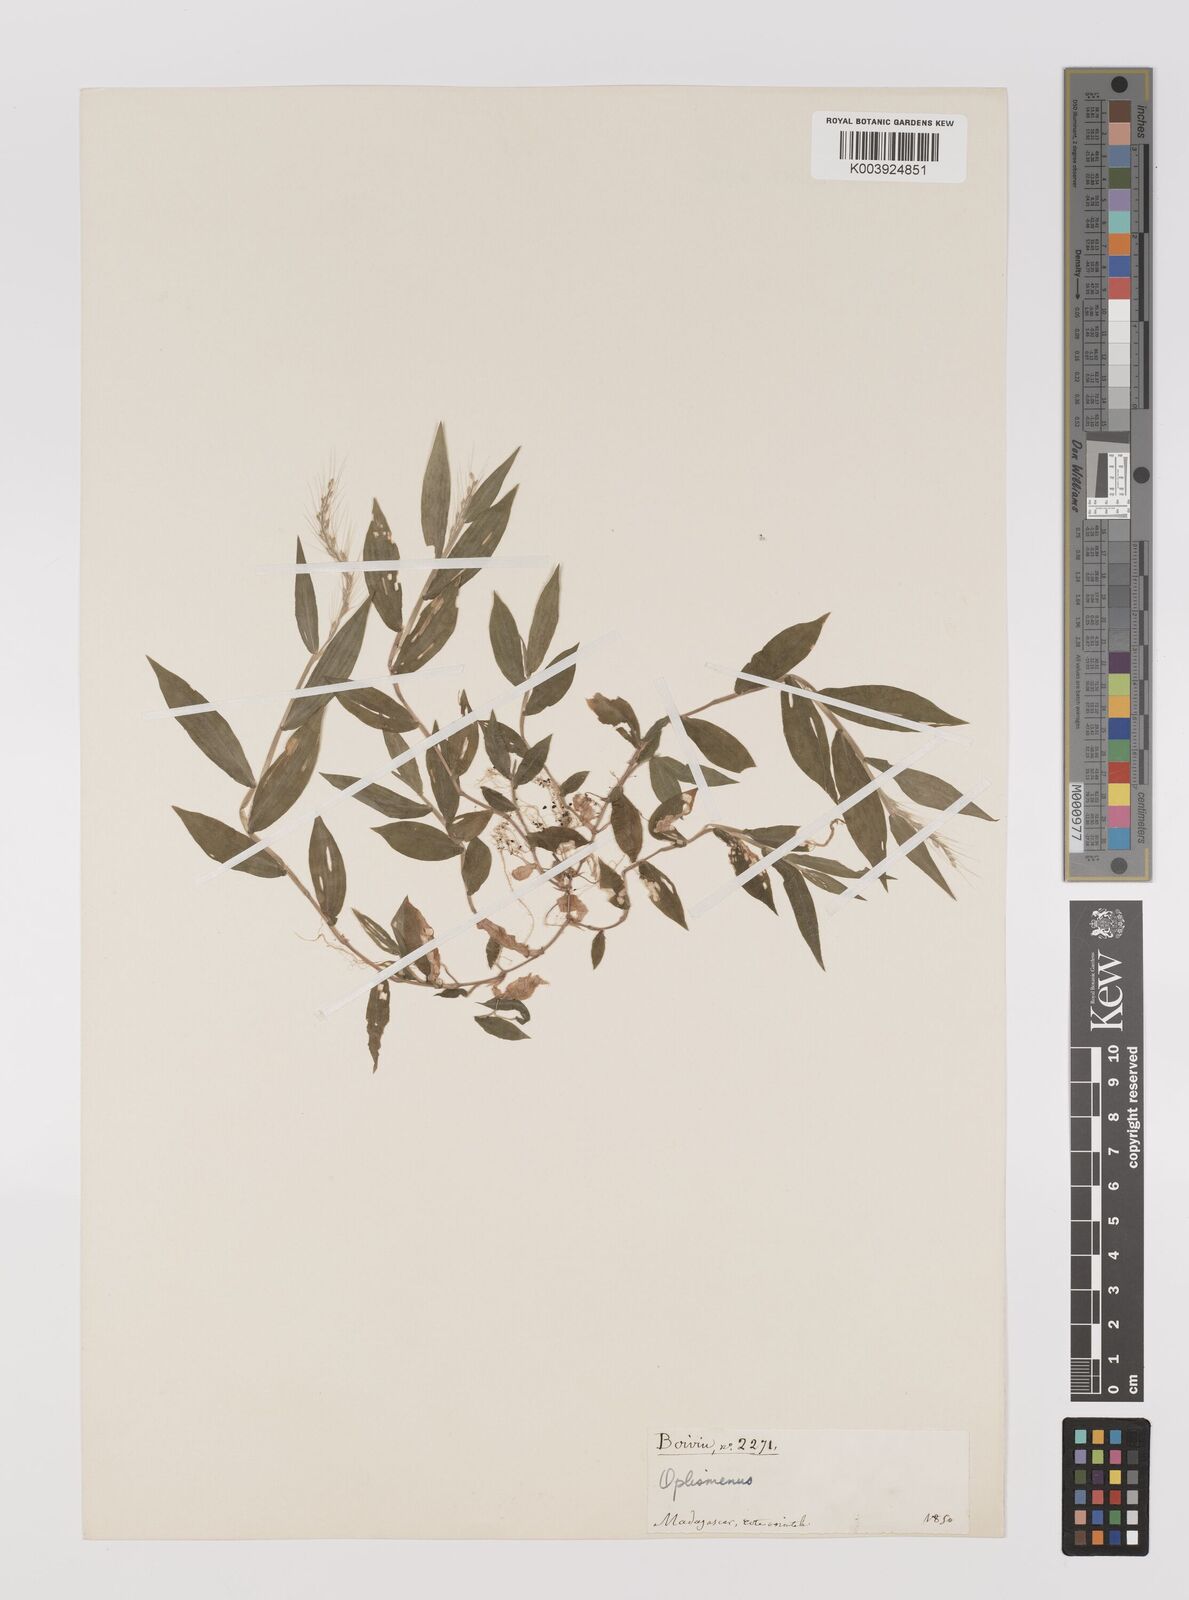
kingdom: Plantae
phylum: Tracheophyta
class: Liliopsida
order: Poales
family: Poaceae
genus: Oplismenus
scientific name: Oplismenus burmanni
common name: Burmann's basketgrass
